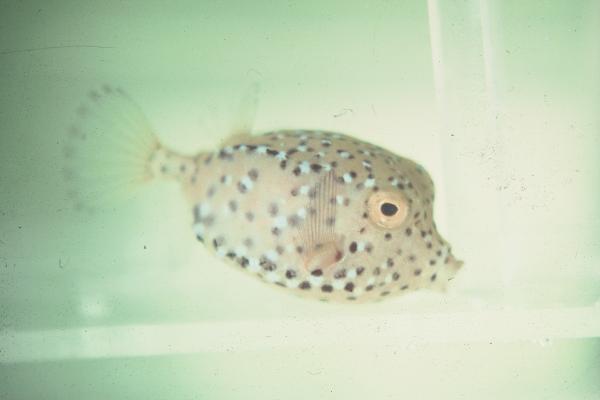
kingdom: Animalia
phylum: Chordata
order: Tetraodontiformes
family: Ostraciidae
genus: Ostracion
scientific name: Ostracion cubicus
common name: Cube trunkfish
